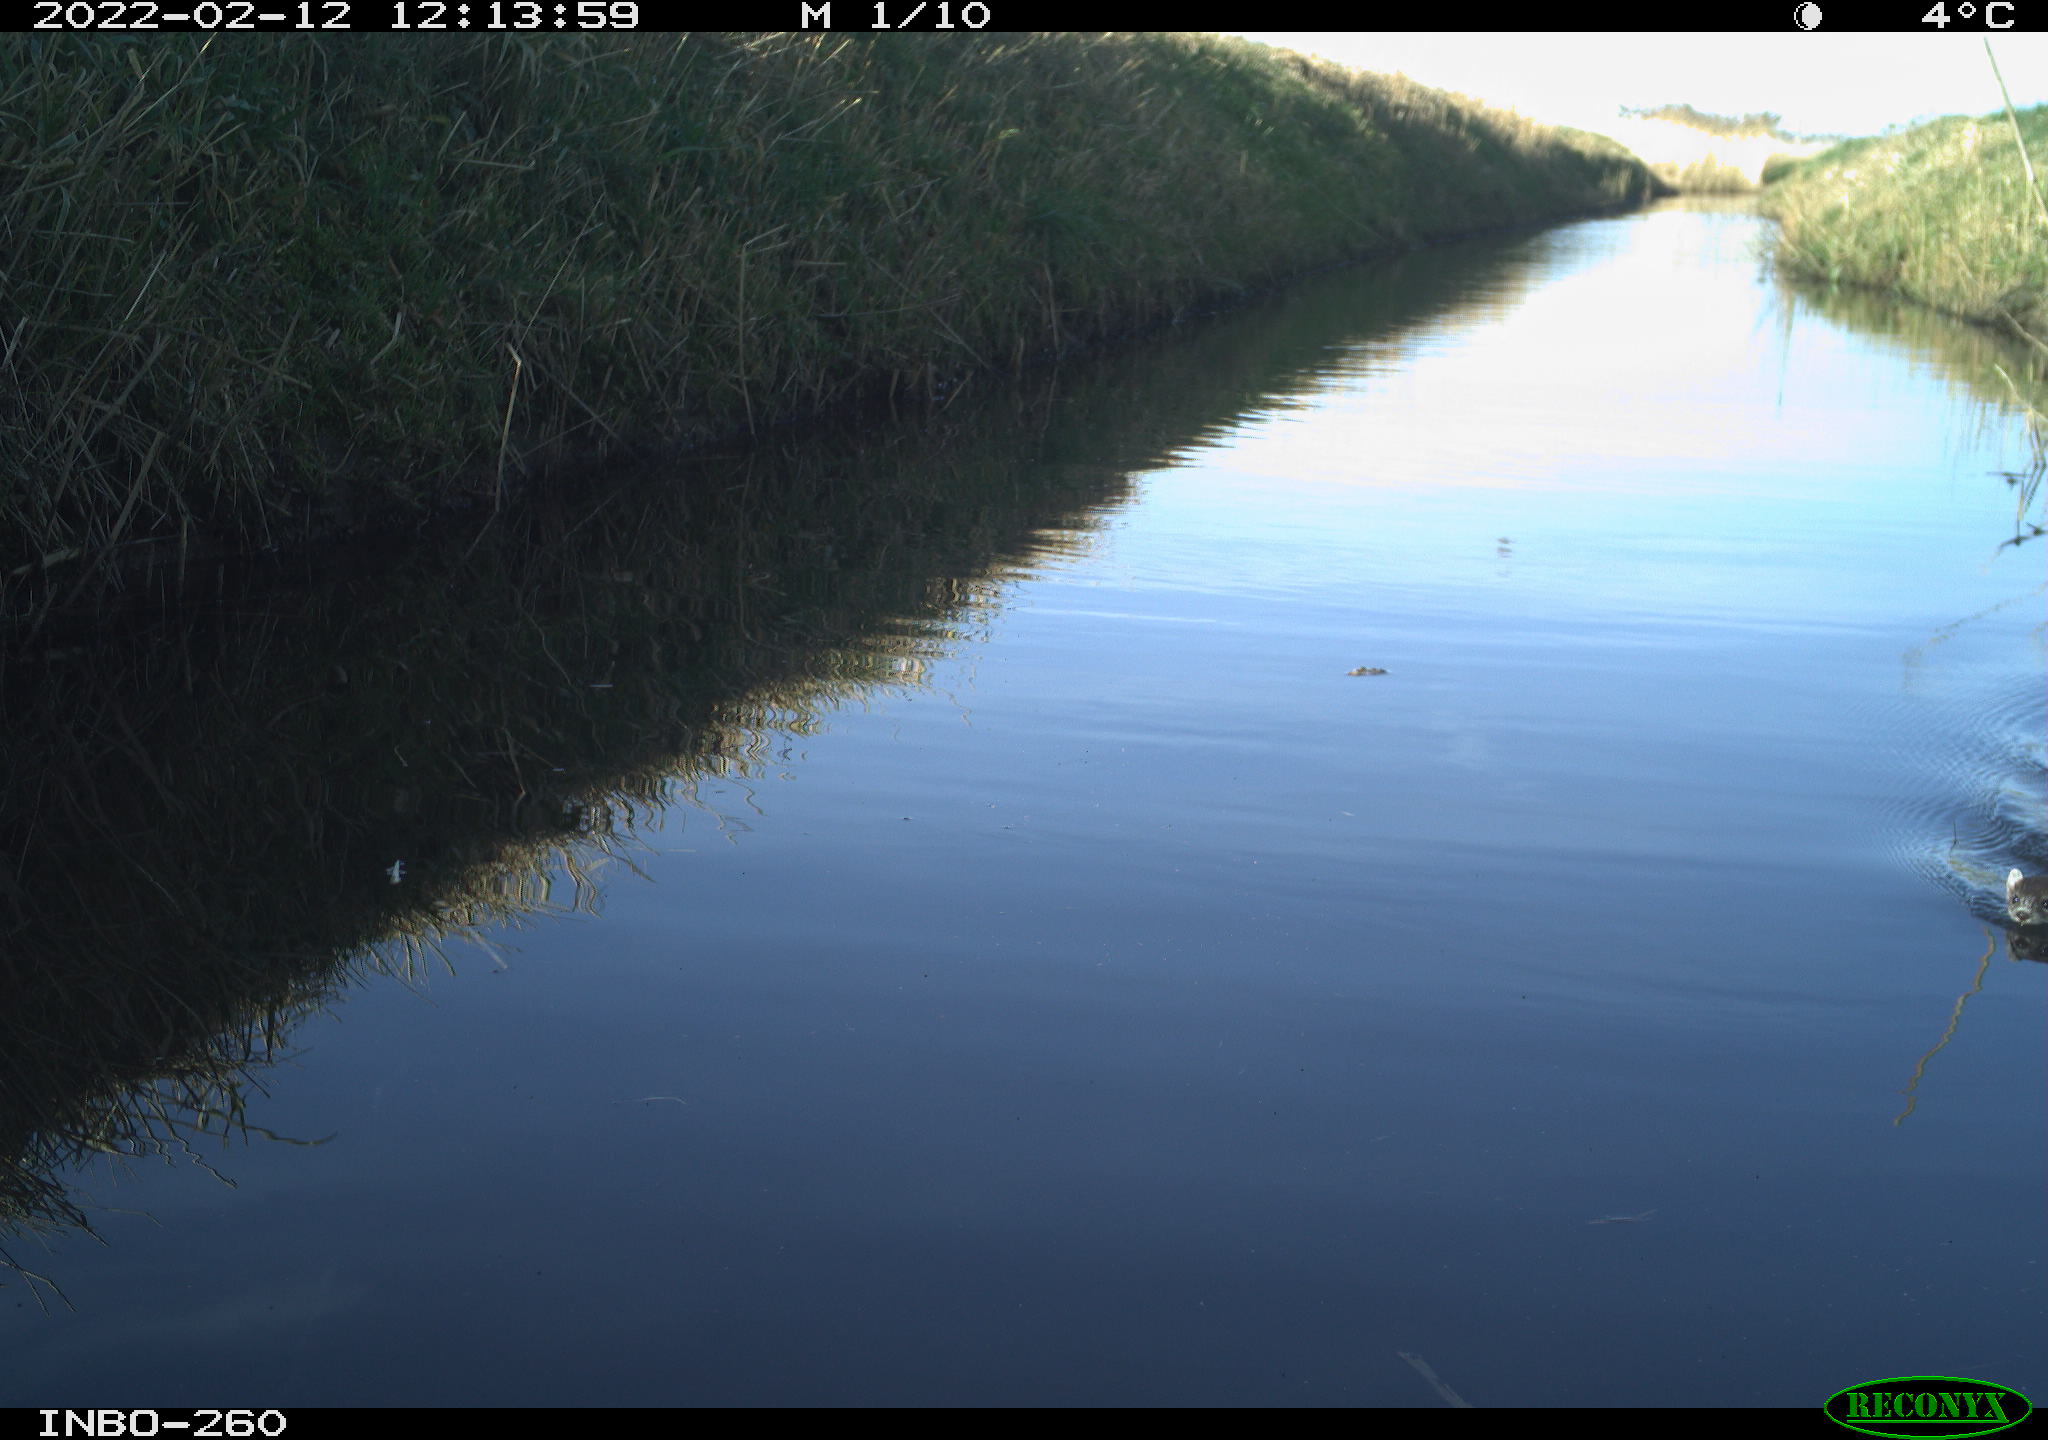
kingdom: Animalia
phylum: Chordata
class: Mammalia
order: Carnivora
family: Mustelidae
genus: Mustela
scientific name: Mustela erminea
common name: Stoat
